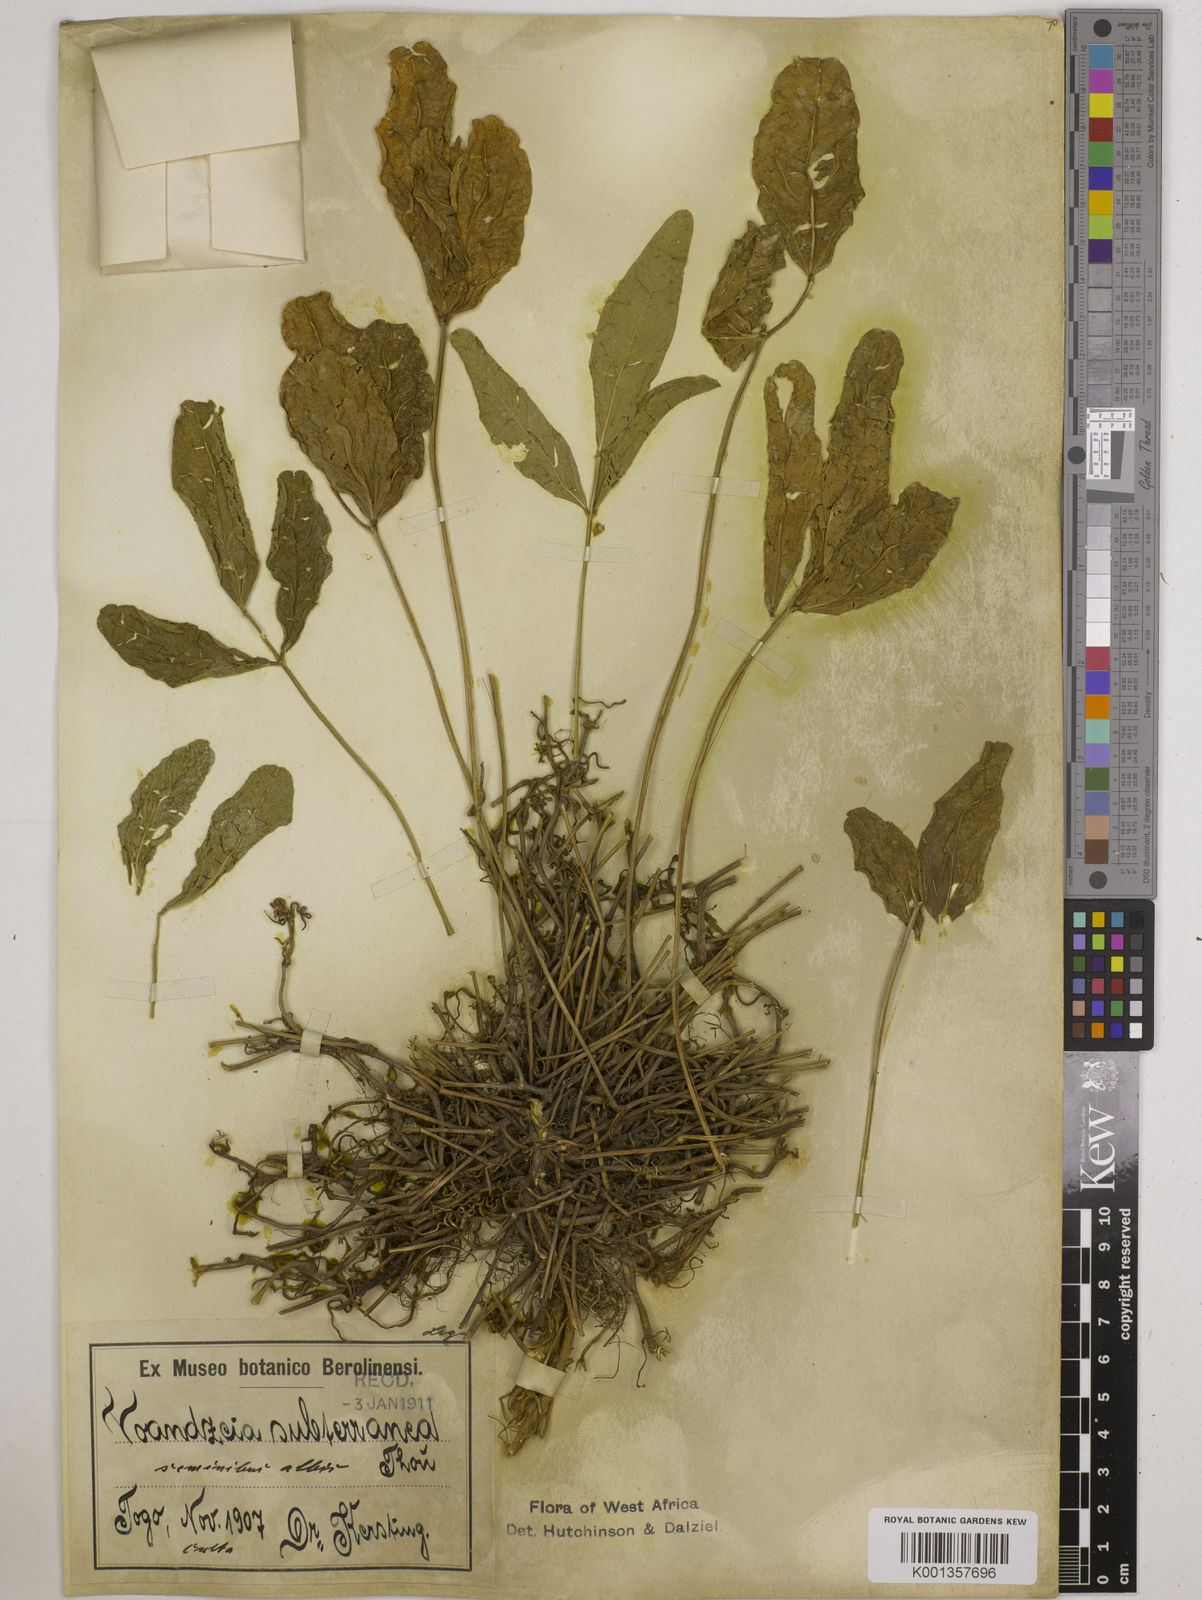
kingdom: Plantae
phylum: Tracheophyta
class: Magnoliopsida
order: Fabales
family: Fabaceae
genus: Vigna
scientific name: Vigna subterranea
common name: Bambara groundnut
